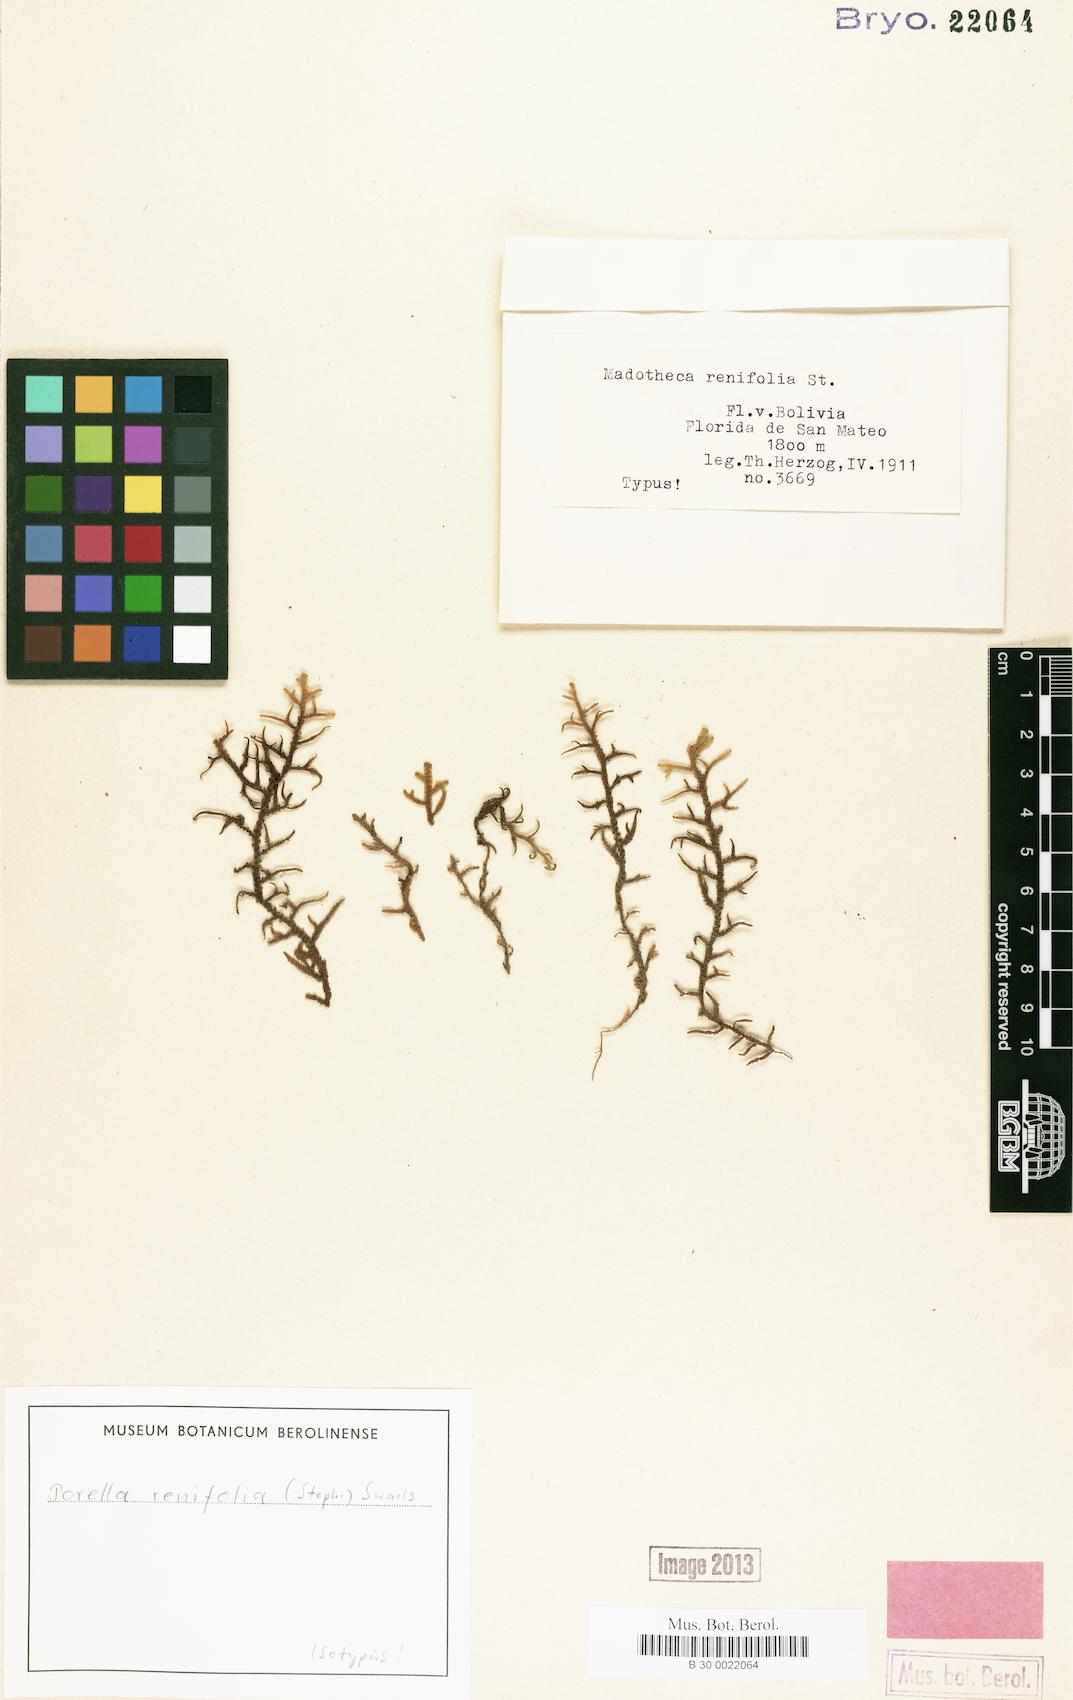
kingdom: Plantae
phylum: Marchantiophyta
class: Jungermanniopsida
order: Porellales
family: Porellaceae
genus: Porella
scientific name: Porella squamulifera
